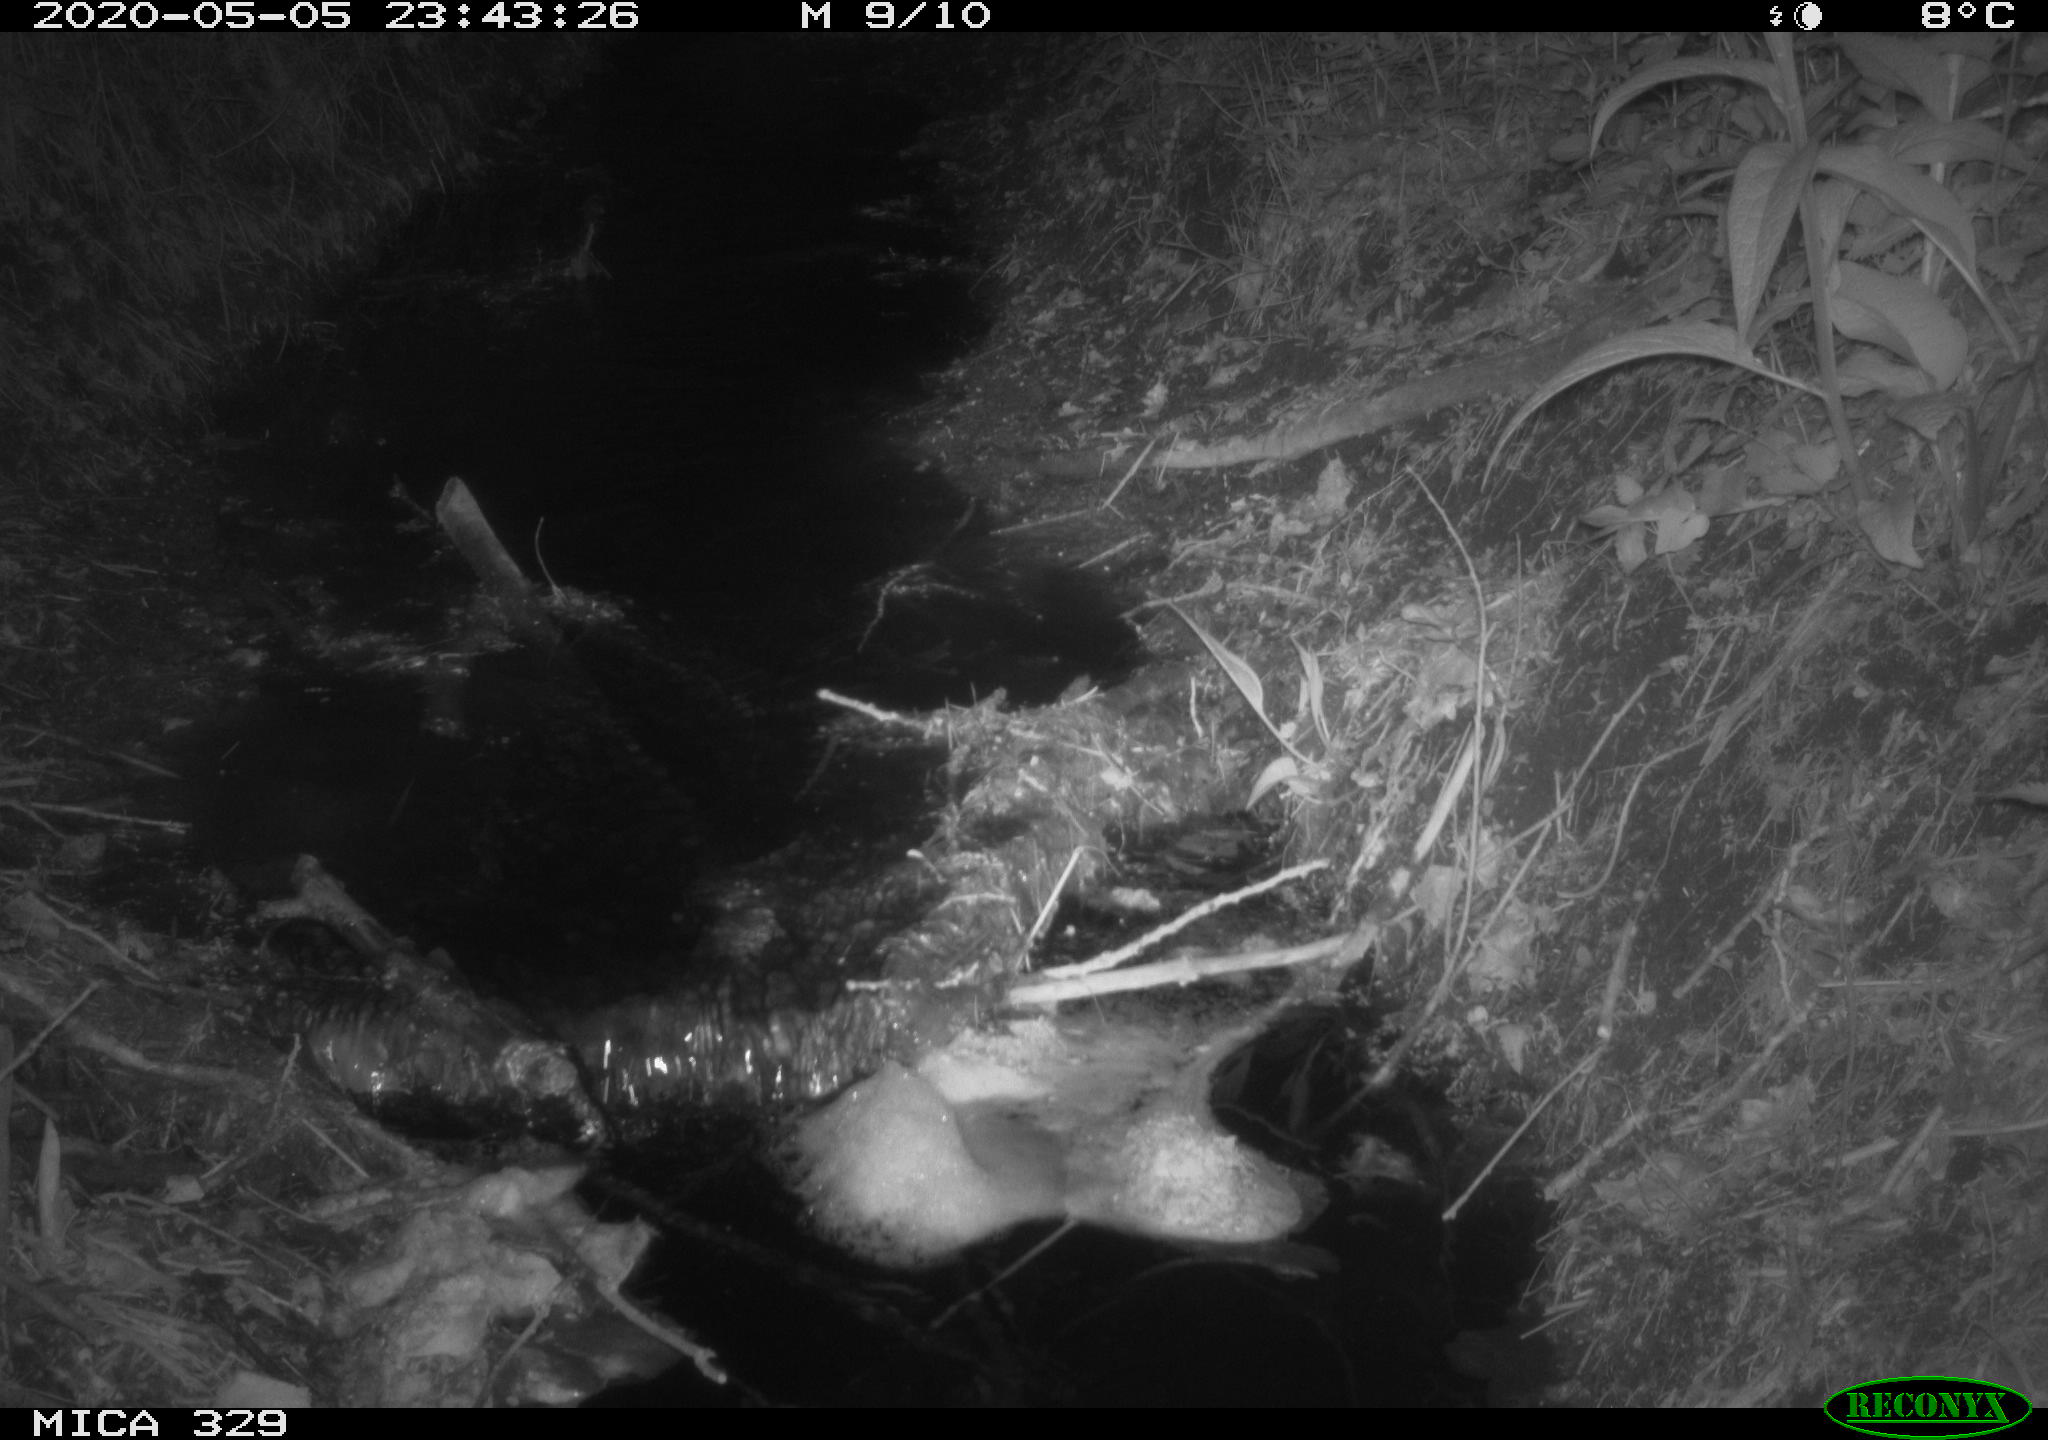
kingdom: Animalia
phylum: Chordata
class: Mammalia
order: Rodentia
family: Muridae
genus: Rattus
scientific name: Rattus norvegicus
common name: Brown rat
